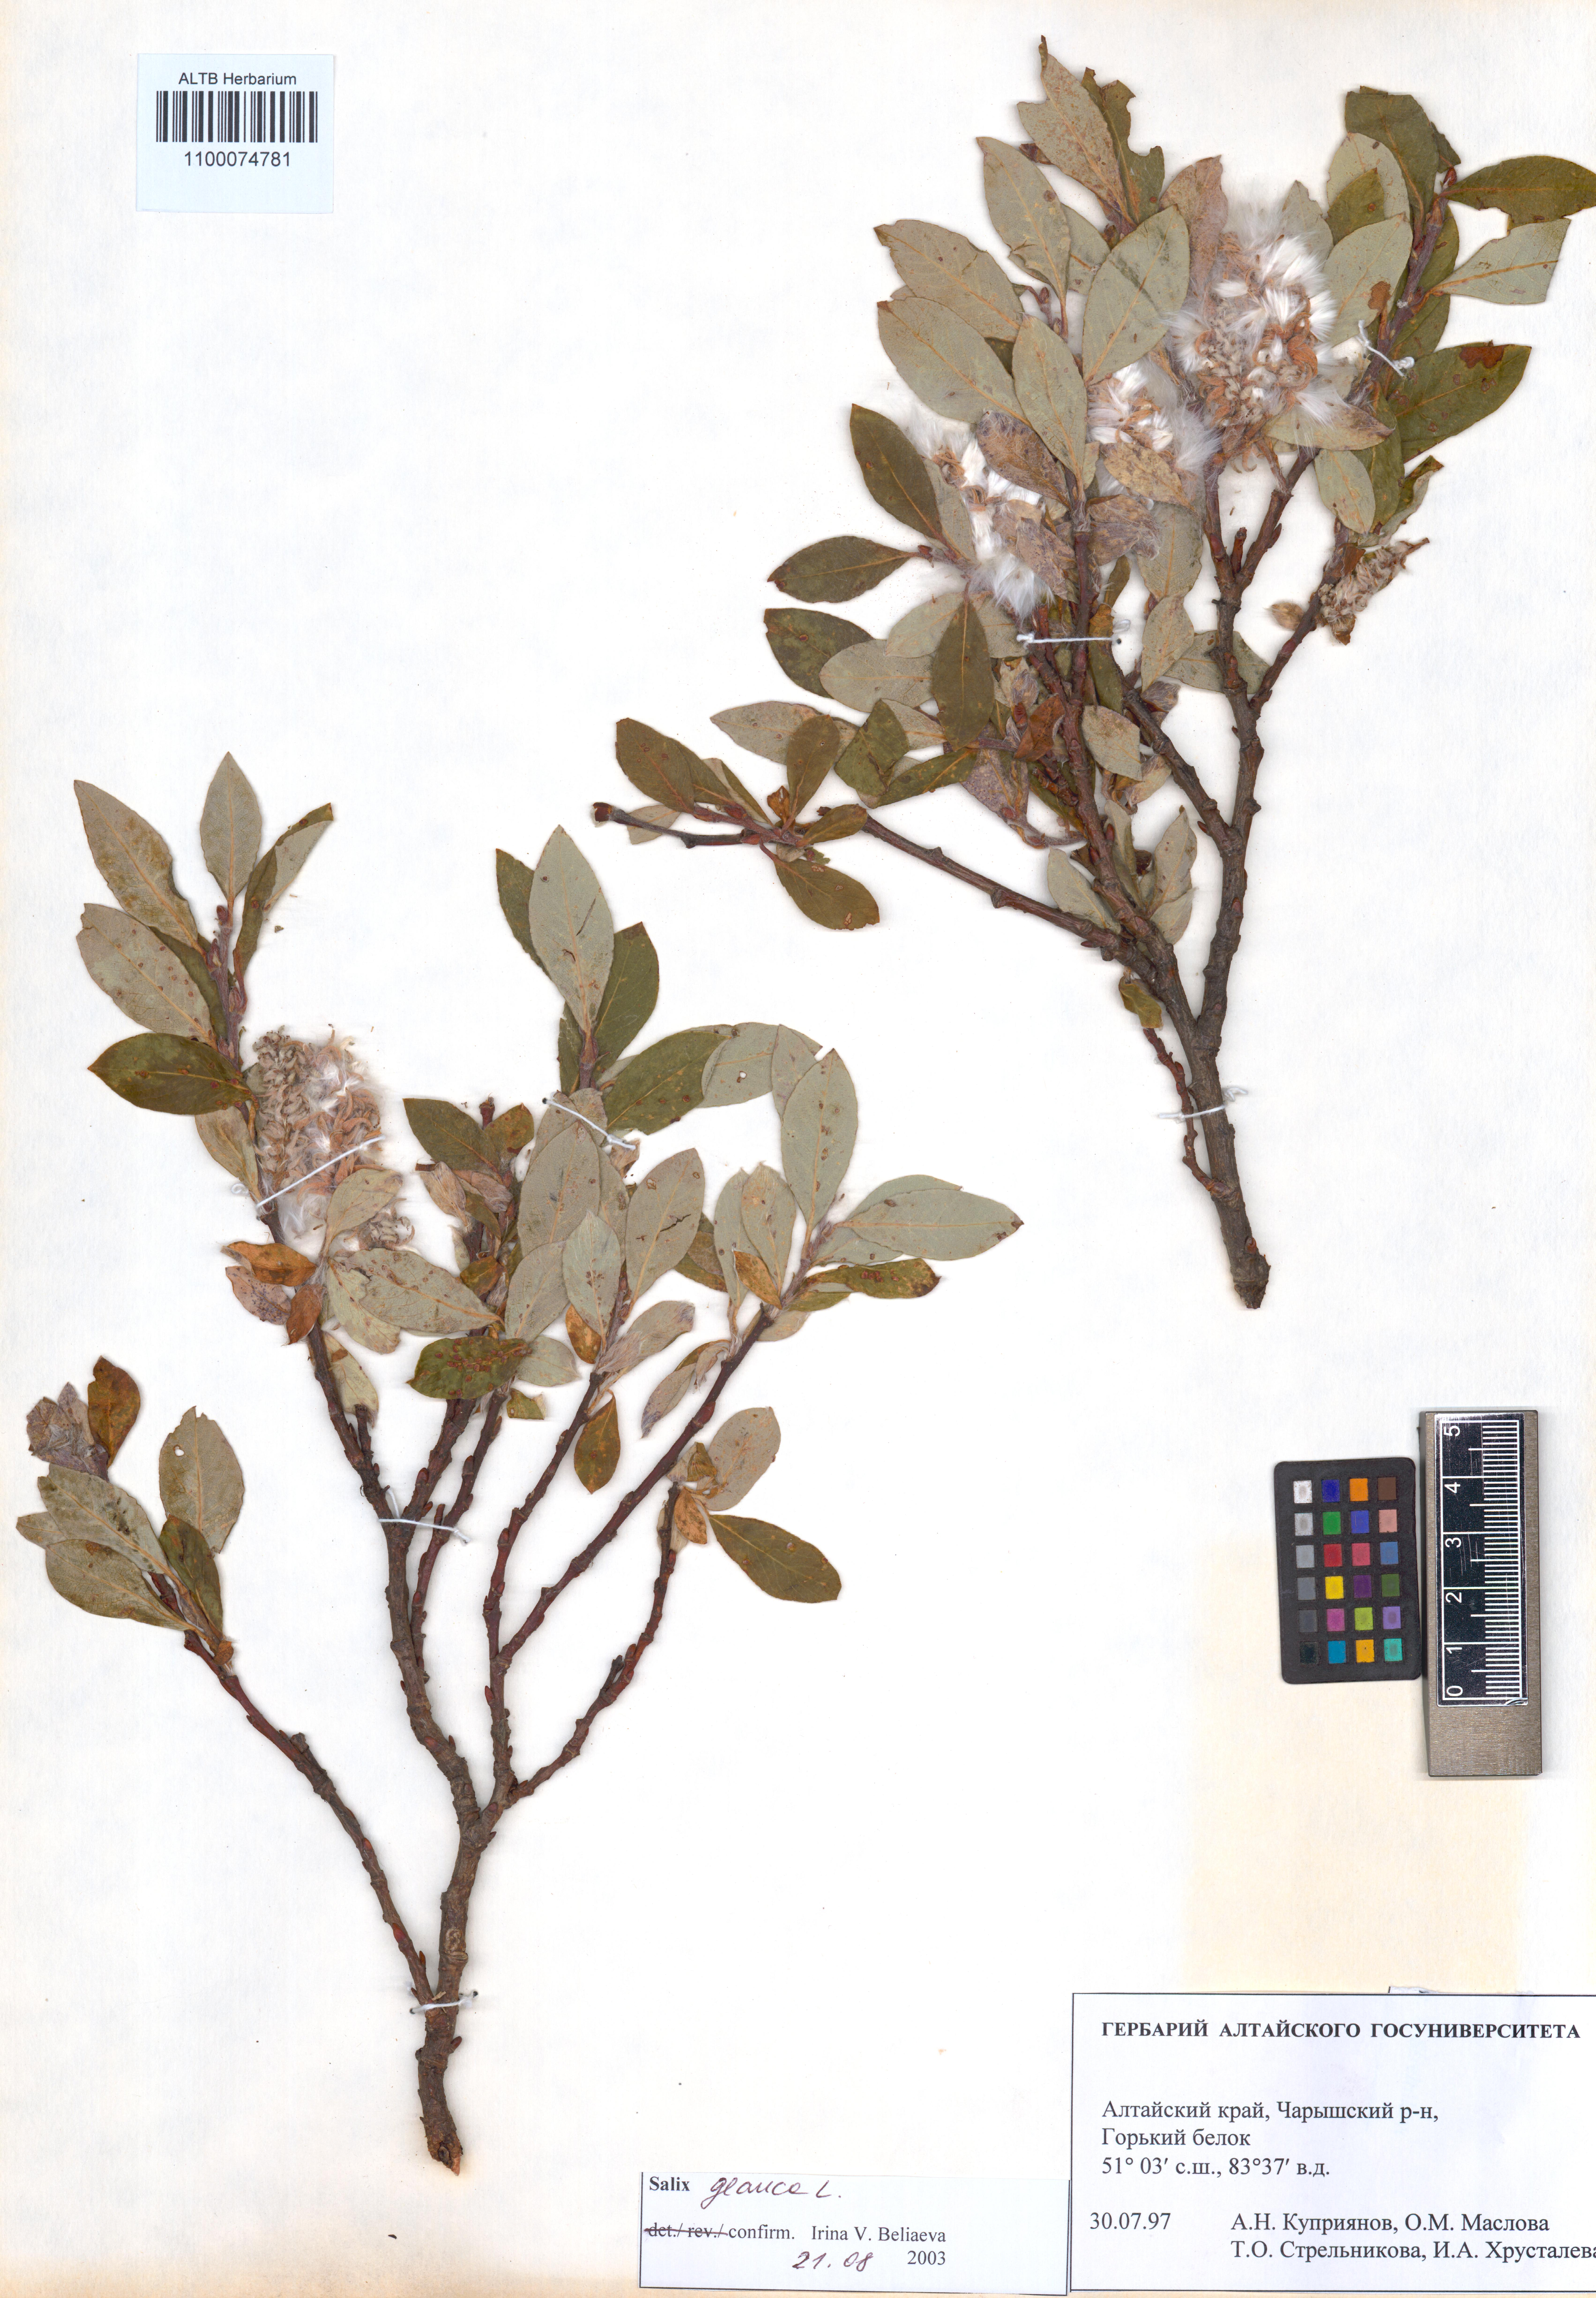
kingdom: Plantae
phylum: Tracheophyta
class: Magnoliopsida
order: Malpighiales
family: Salicaceae
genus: Salix
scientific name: Salix glauca
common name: Glaucous willow
